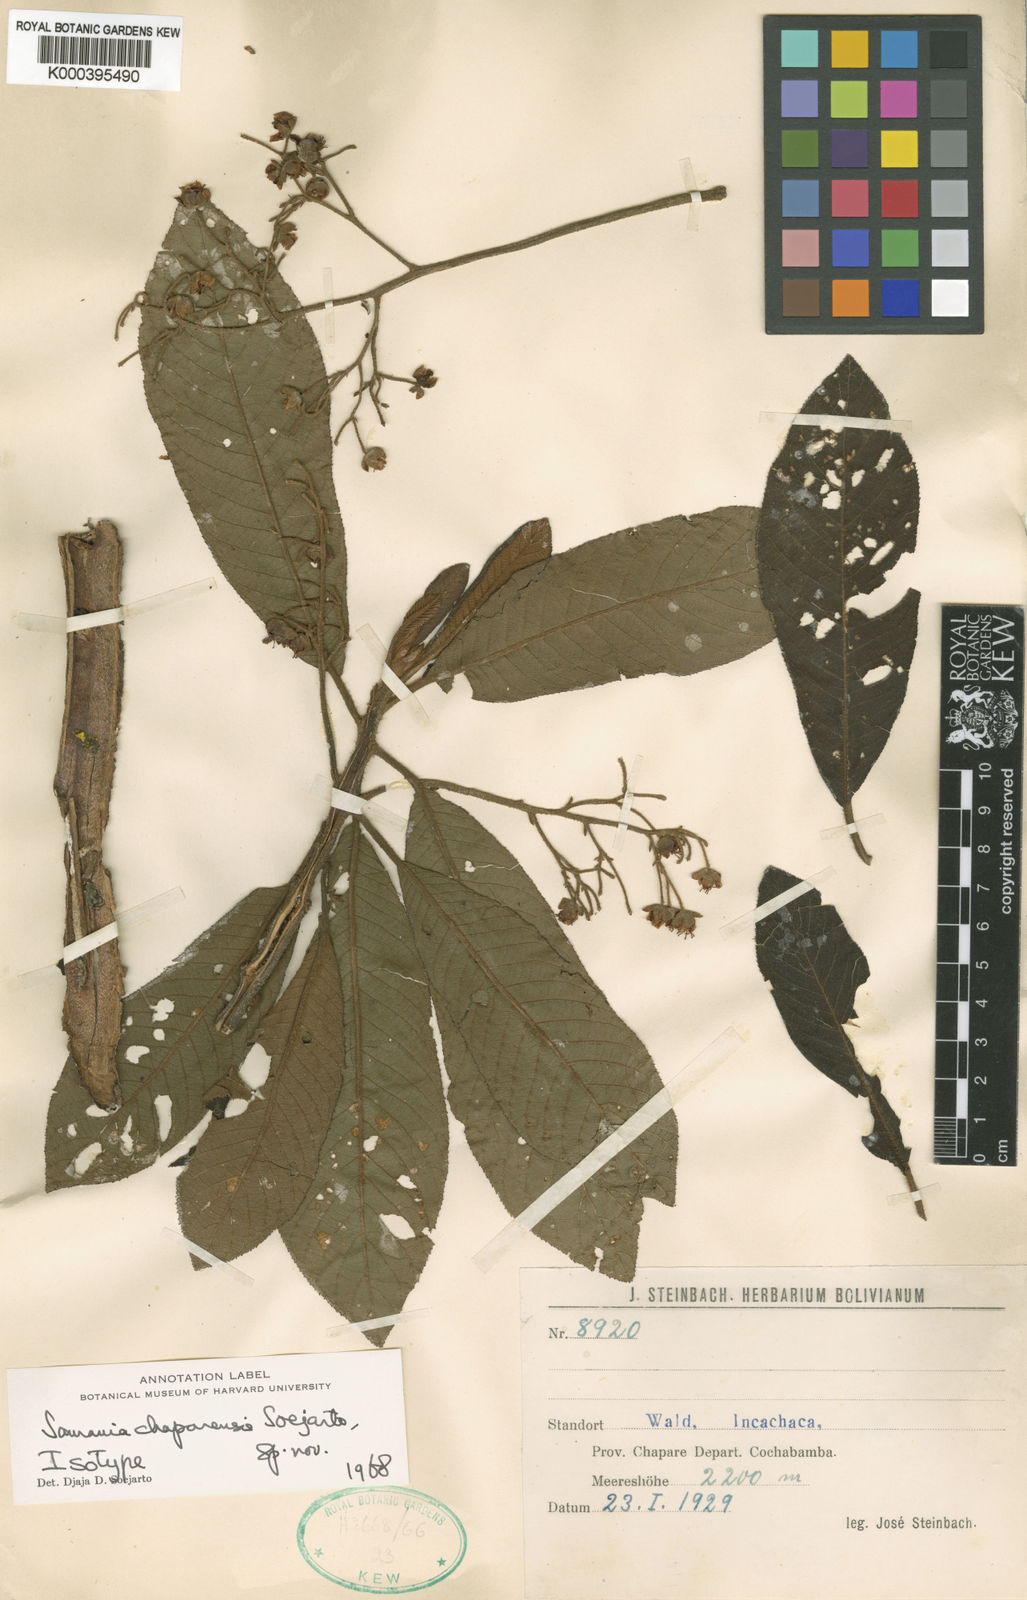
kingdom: Plantae
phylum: Tracheophyta
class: Magnoliopsida
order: Ericales
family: Actinidiaceae
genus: Saurauia
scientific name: Saurauia chaparensis
